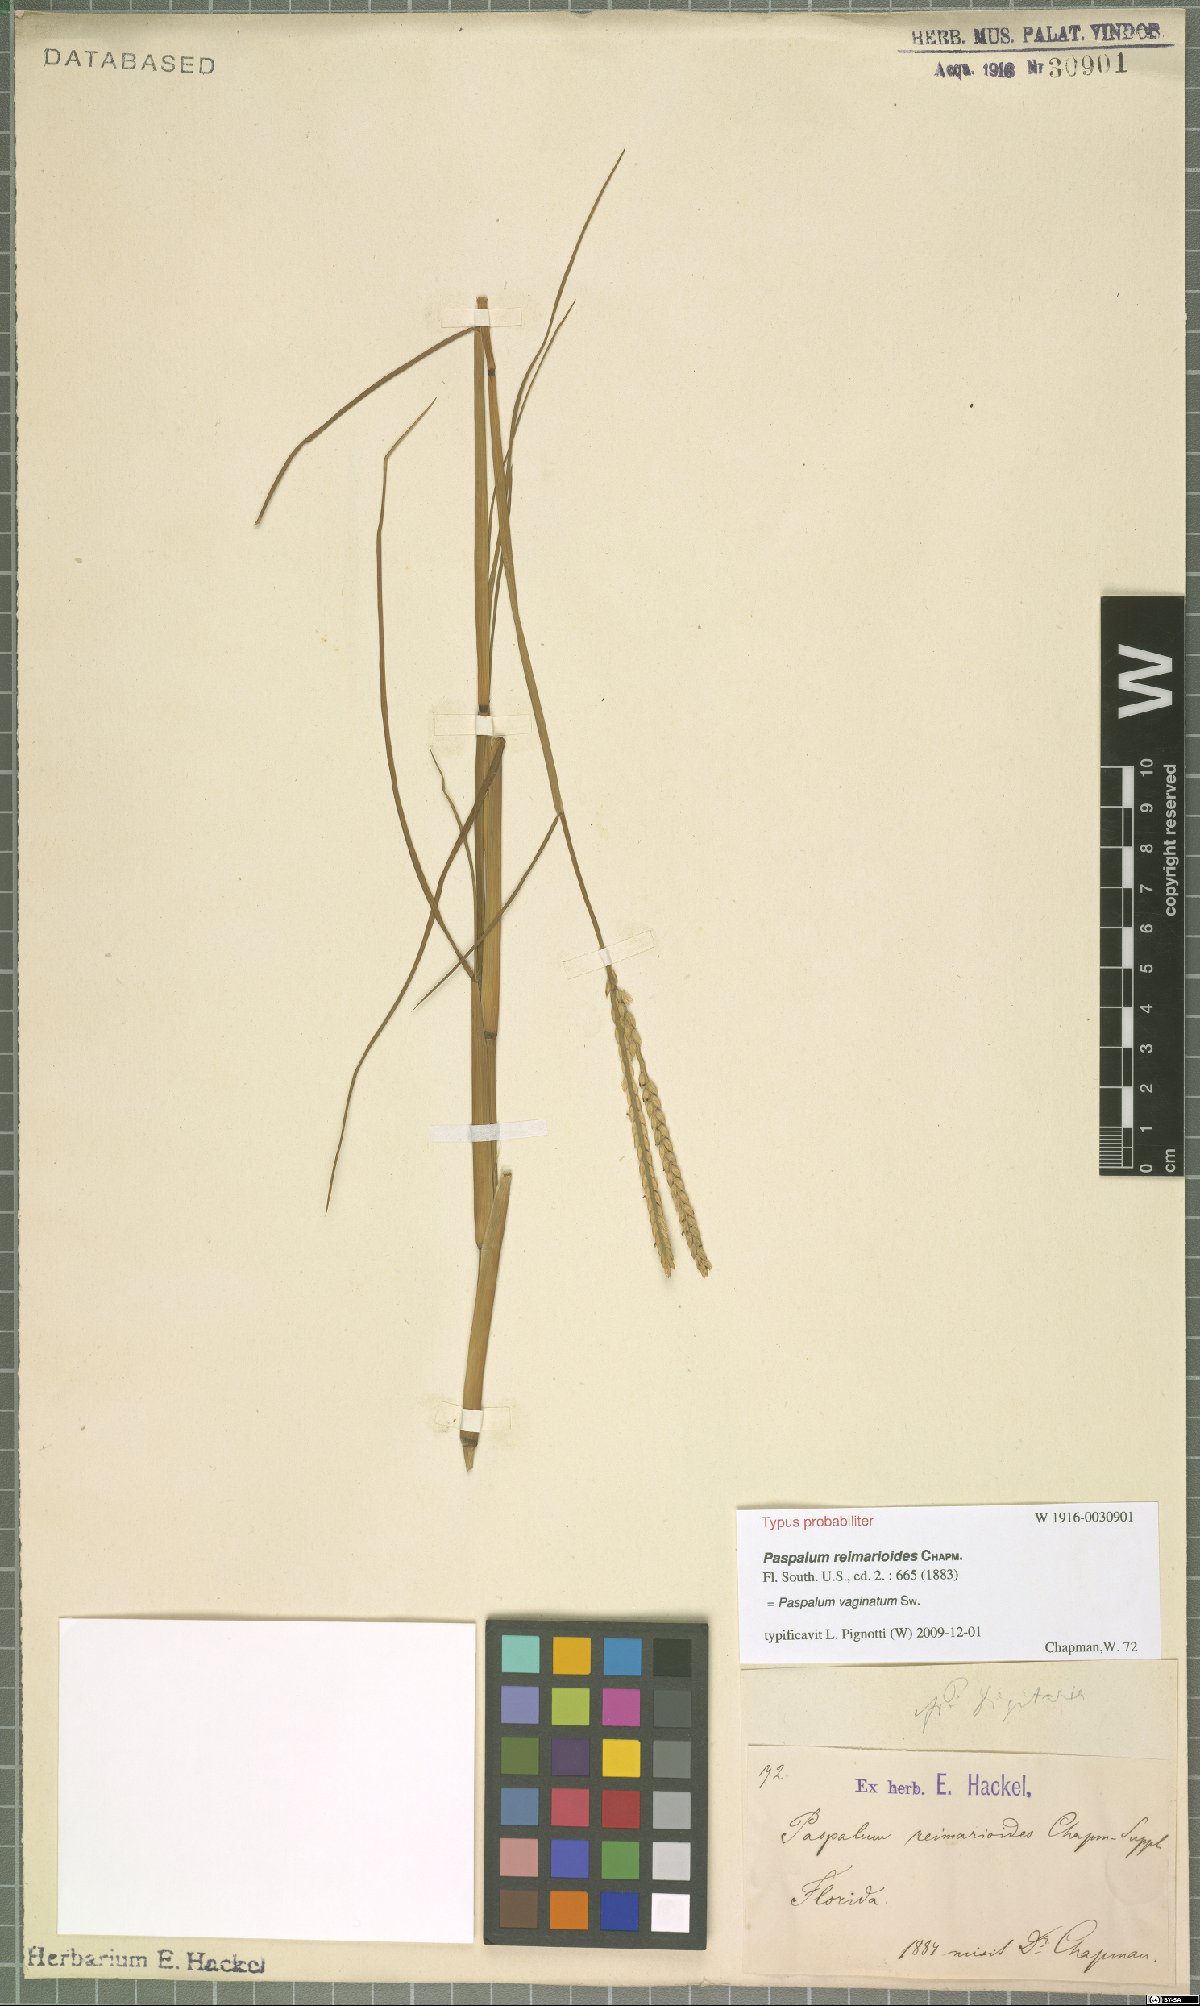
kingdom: Plantae
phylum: Tracheophyta
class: Liliopsida
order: Poales
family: Poaceae
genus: Paspalum
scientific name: Paspalum vaginatum
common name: Seashore paspalum
